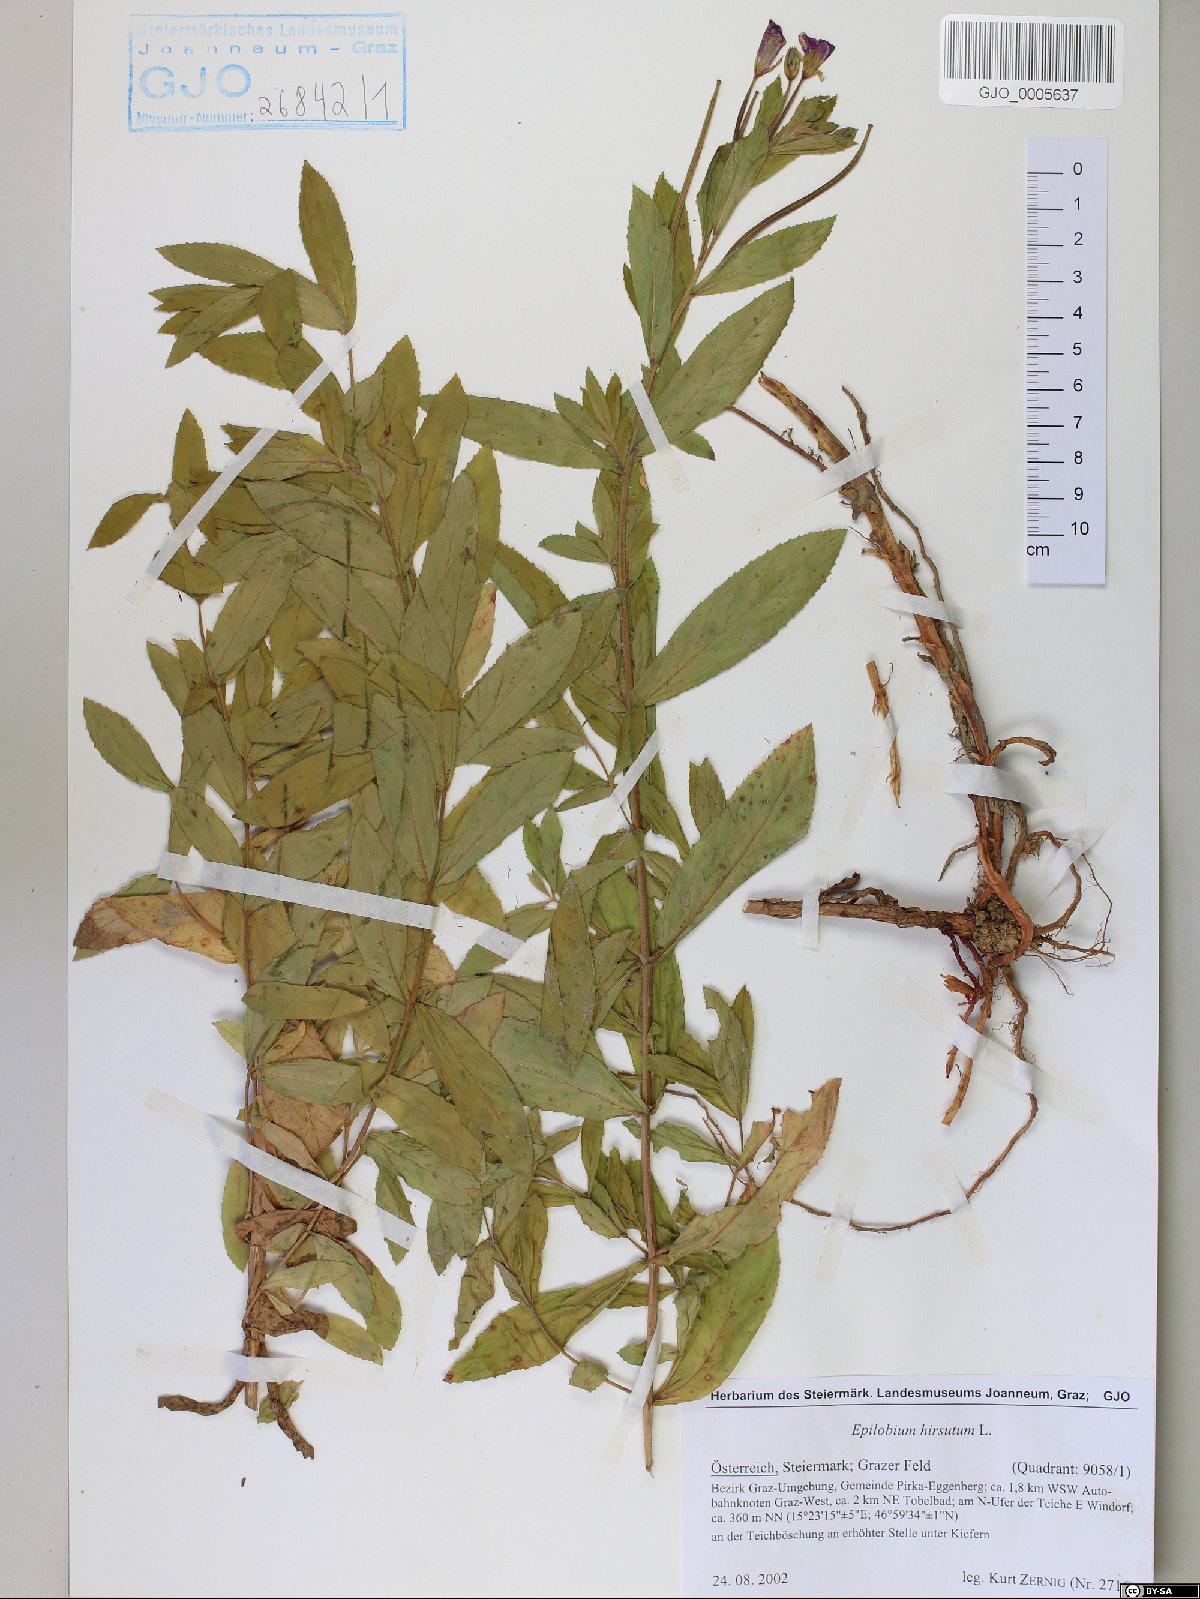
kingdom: Plantae
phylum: Tracheophyta
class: Magnoliopsida
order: Myrtales
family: Onagraceae
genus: Epilobium
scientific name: Epilobium hirsutum
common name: Great willowherb
